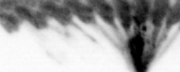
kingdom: Animalia
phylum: Annelida
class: Polychaeta
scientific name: Polychaeta
